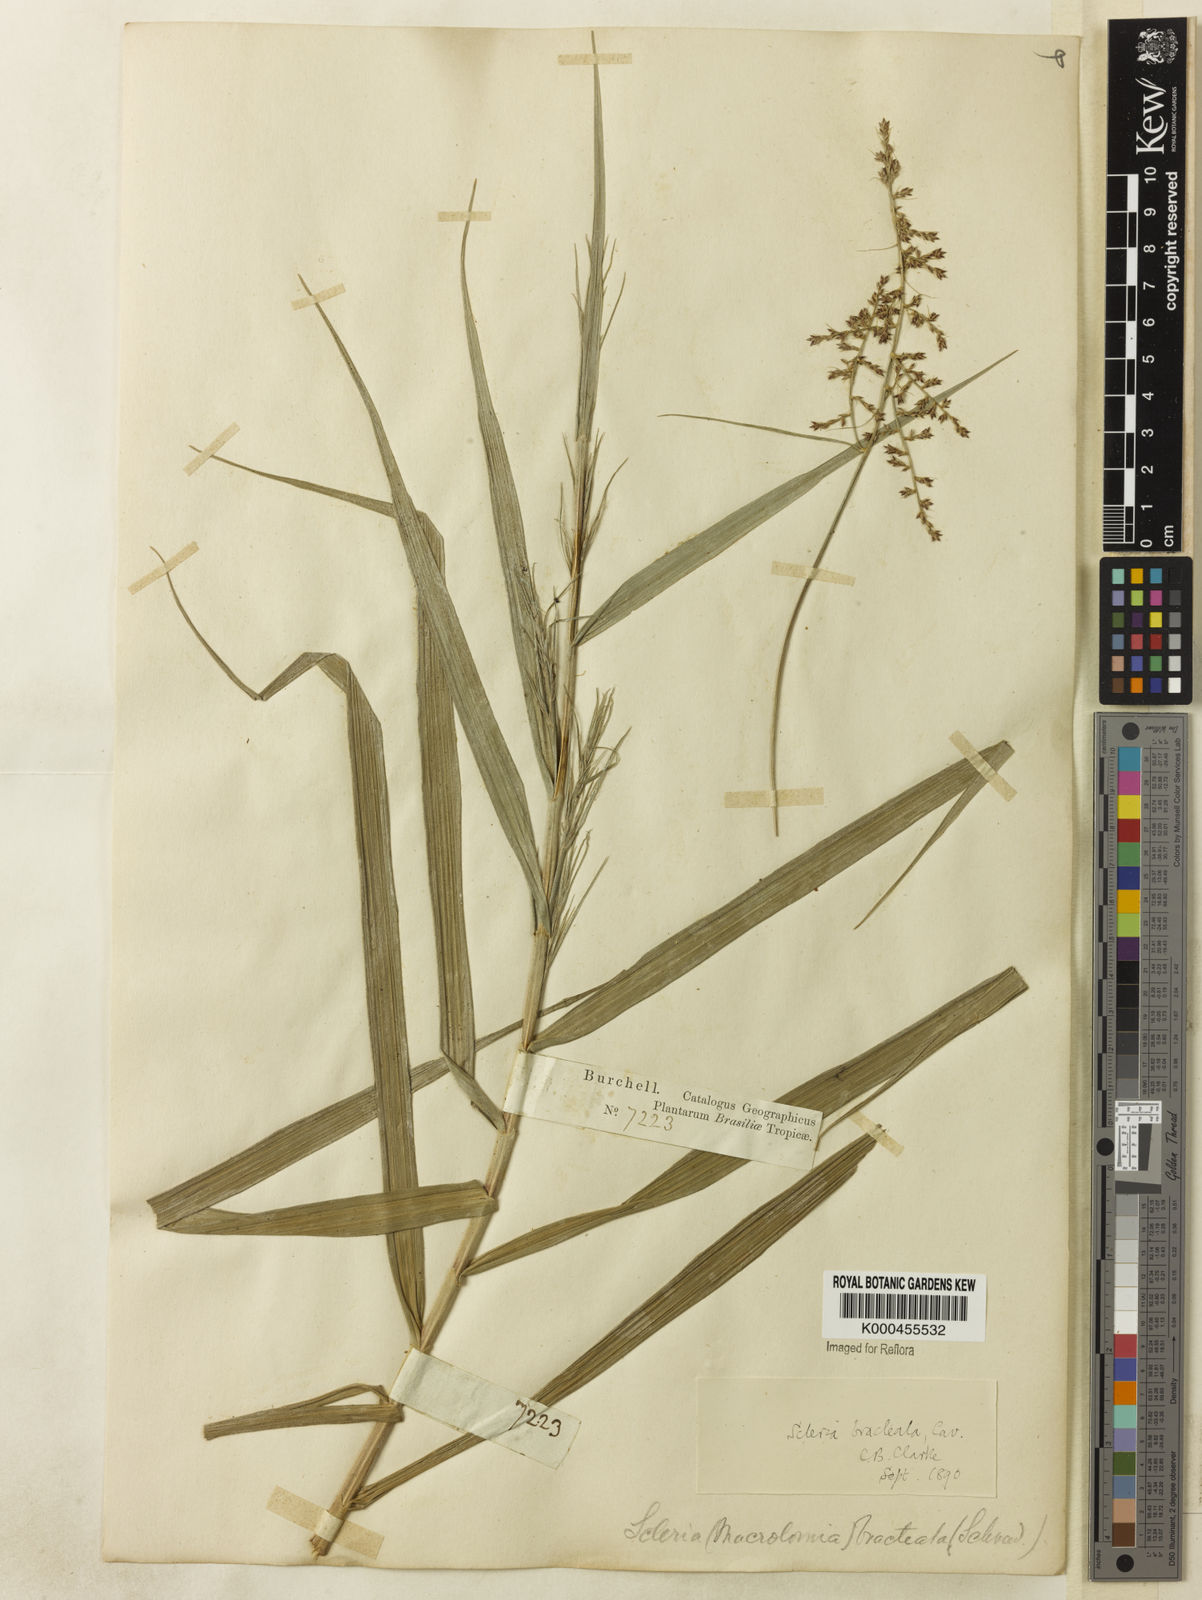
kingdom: Plantae
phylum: Tracheophyta
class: Liliopsida
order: Poales
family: Cyperaceae
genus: Scleria
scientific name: Scleria bracteata
